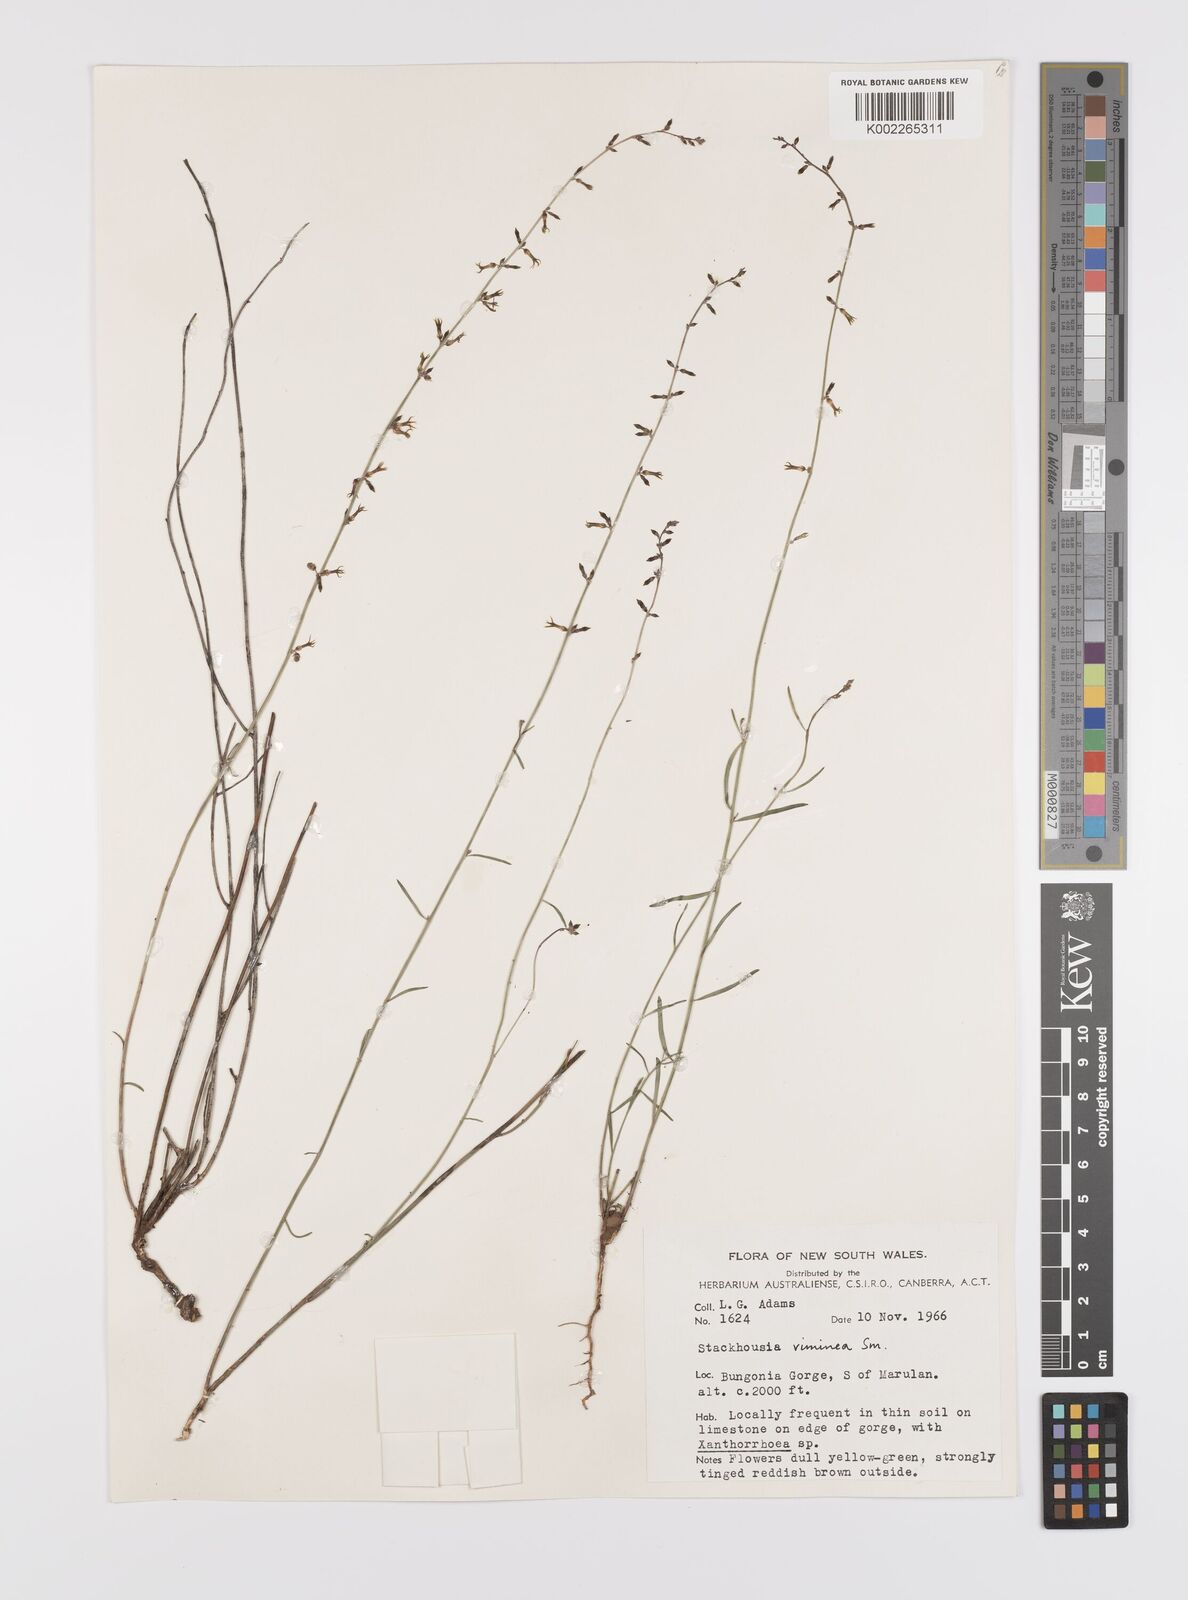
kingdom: Plantae
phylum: Tracheophyta
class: Magnoliopsida
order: Celastrales
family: Celastraceae
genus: Stackhousia
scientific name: Stackhousia viminea
